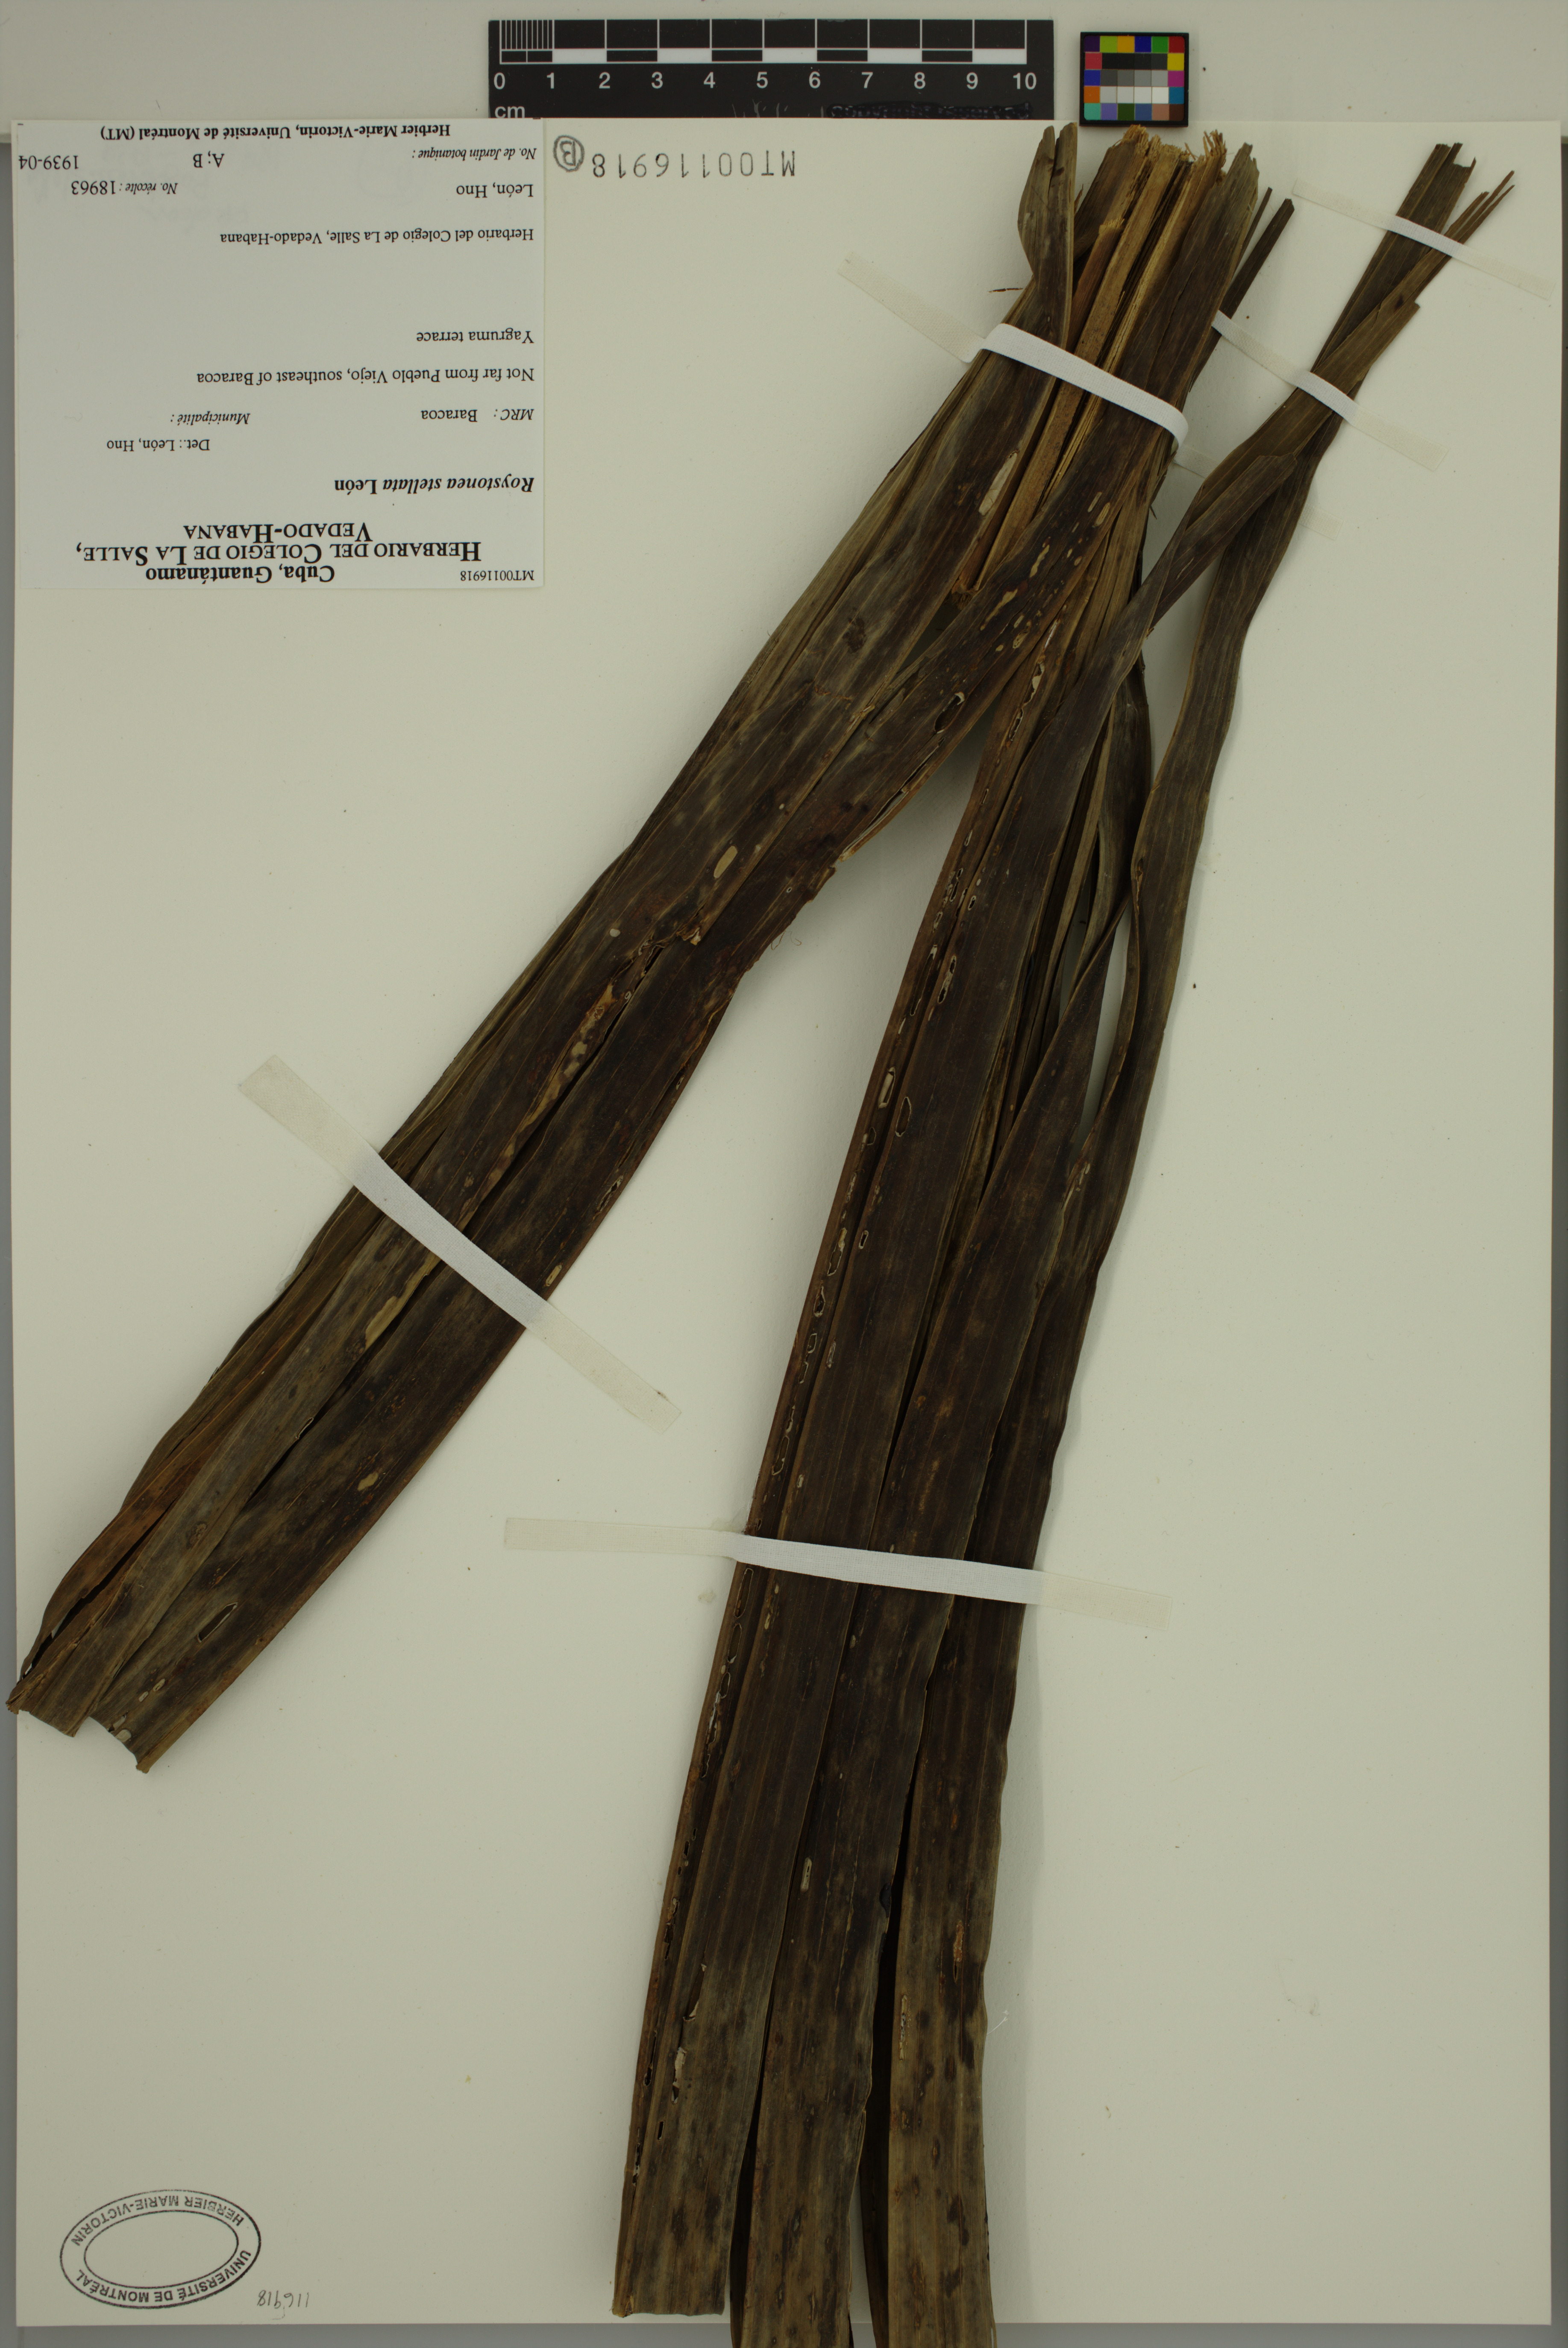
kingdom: Plantae
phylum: Tracheophyta
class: Liliopsida
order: Arecales
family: Arecaceae
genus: Roystonea
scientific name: Roystonea stellata
